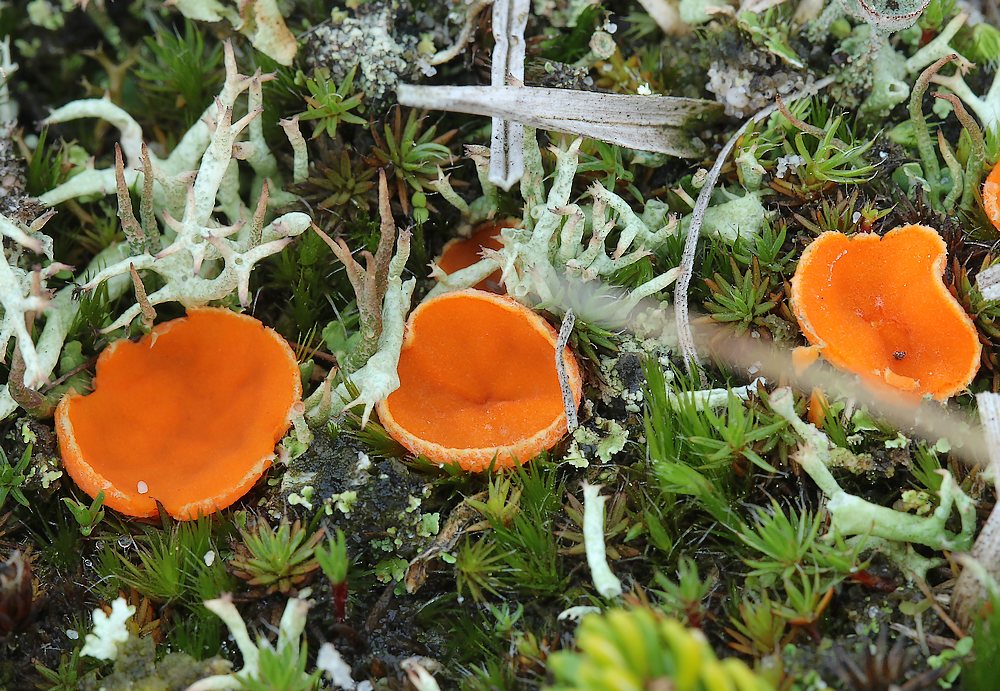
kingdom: Fungi
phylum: Ascomycota
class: Pezizomycetes
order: Pezizales
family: Pyronemataceae
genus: Neottiella
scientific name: Neottiella vivida
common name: sand-mosbæger
